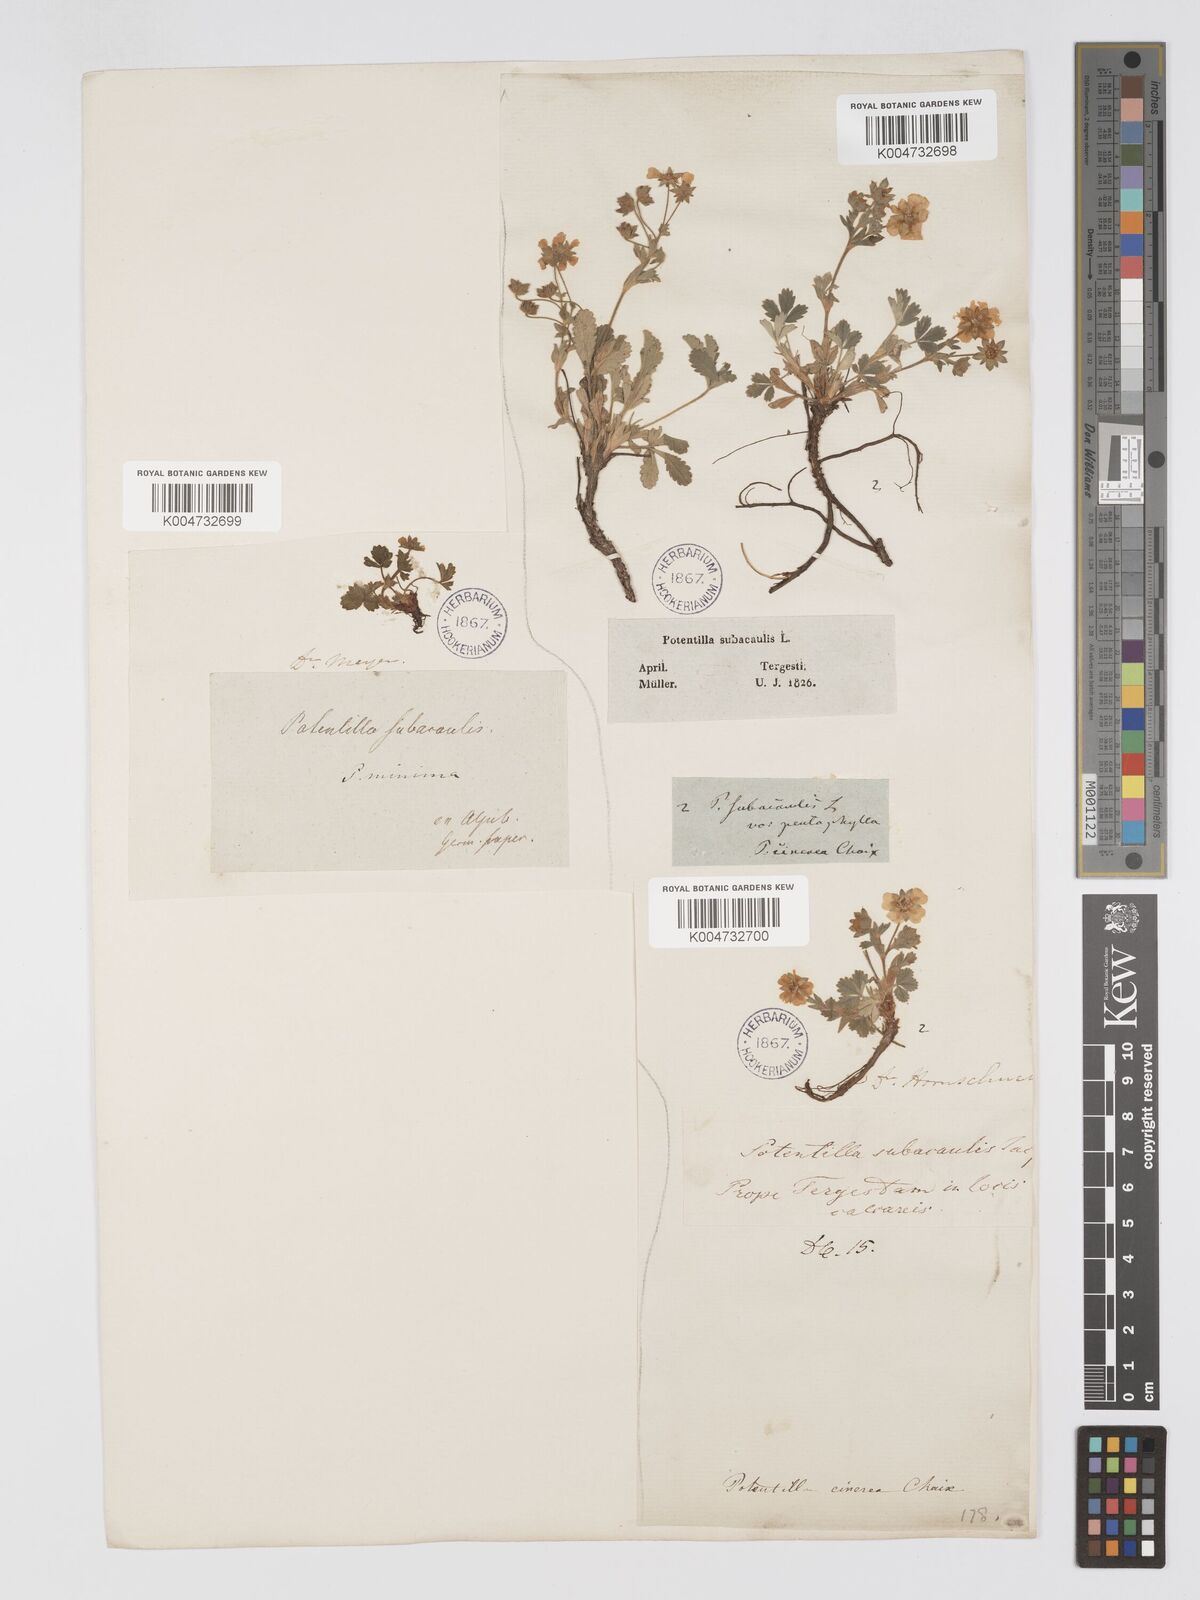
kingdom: Plantae
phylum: Tracheophyta
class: Magnoliopsida
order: Rosales
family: Rosaceae
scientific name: Rosaceae
